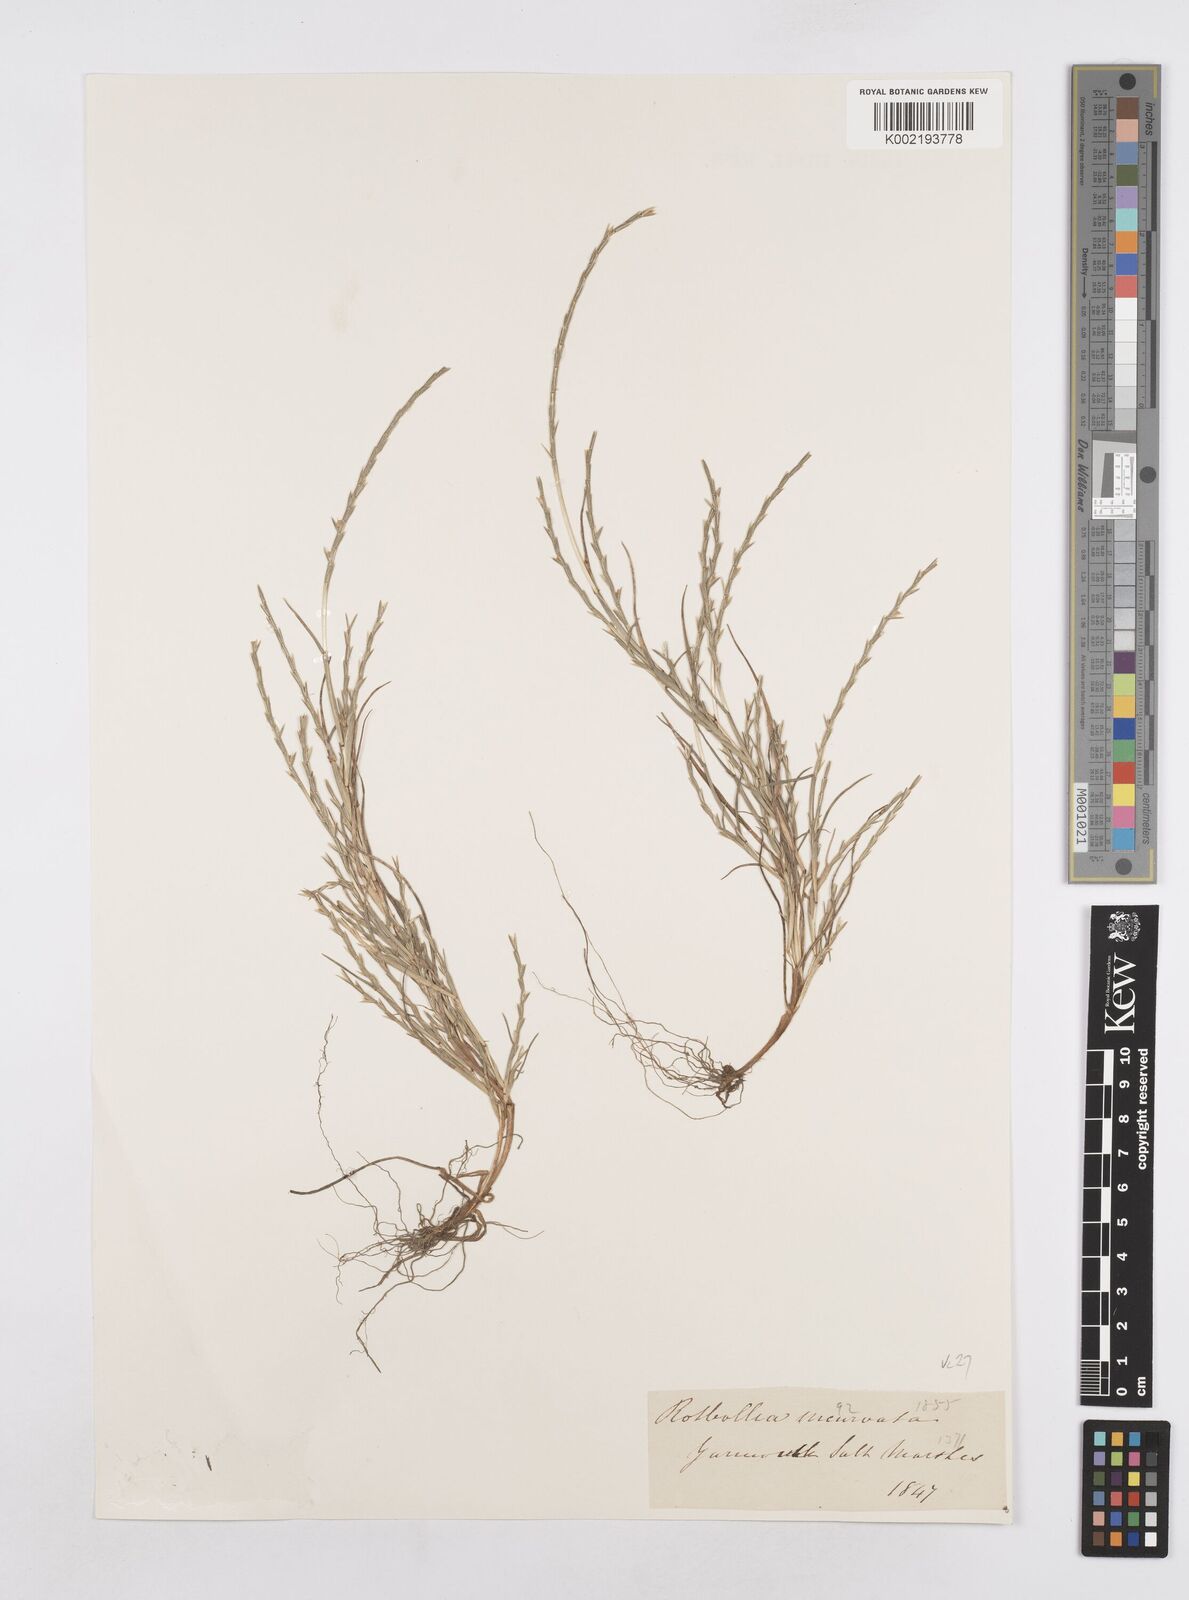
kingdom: Plantae
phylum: Tracheophyta
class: Liliopsida
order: Poales
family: Poaceae
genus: Parapholis
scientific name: Parapholis strigosa
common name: Hard-grass
